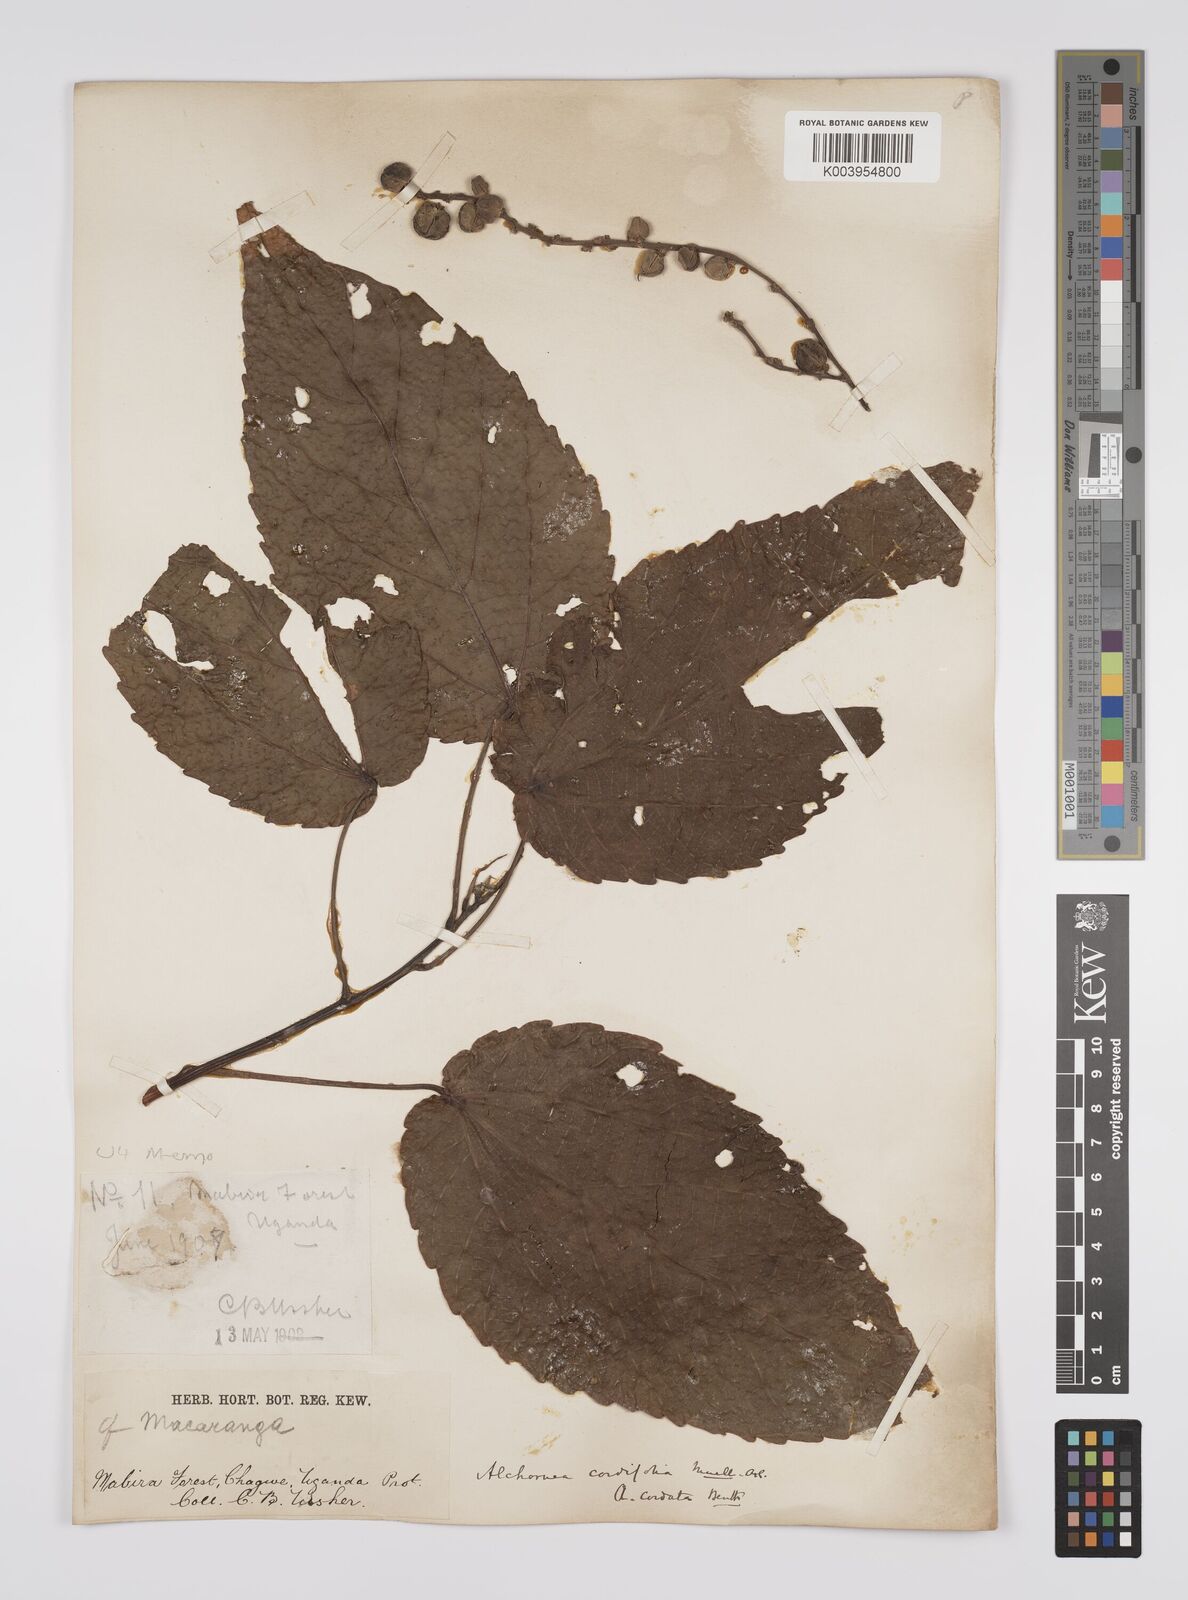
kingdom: Plantae
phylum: Tracheophyta
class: Magnoliopsida
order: Malpighiales
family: Euphorbiaceae
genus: Alchornea
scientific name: Alchornea cordifolia
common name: Christmasbush
